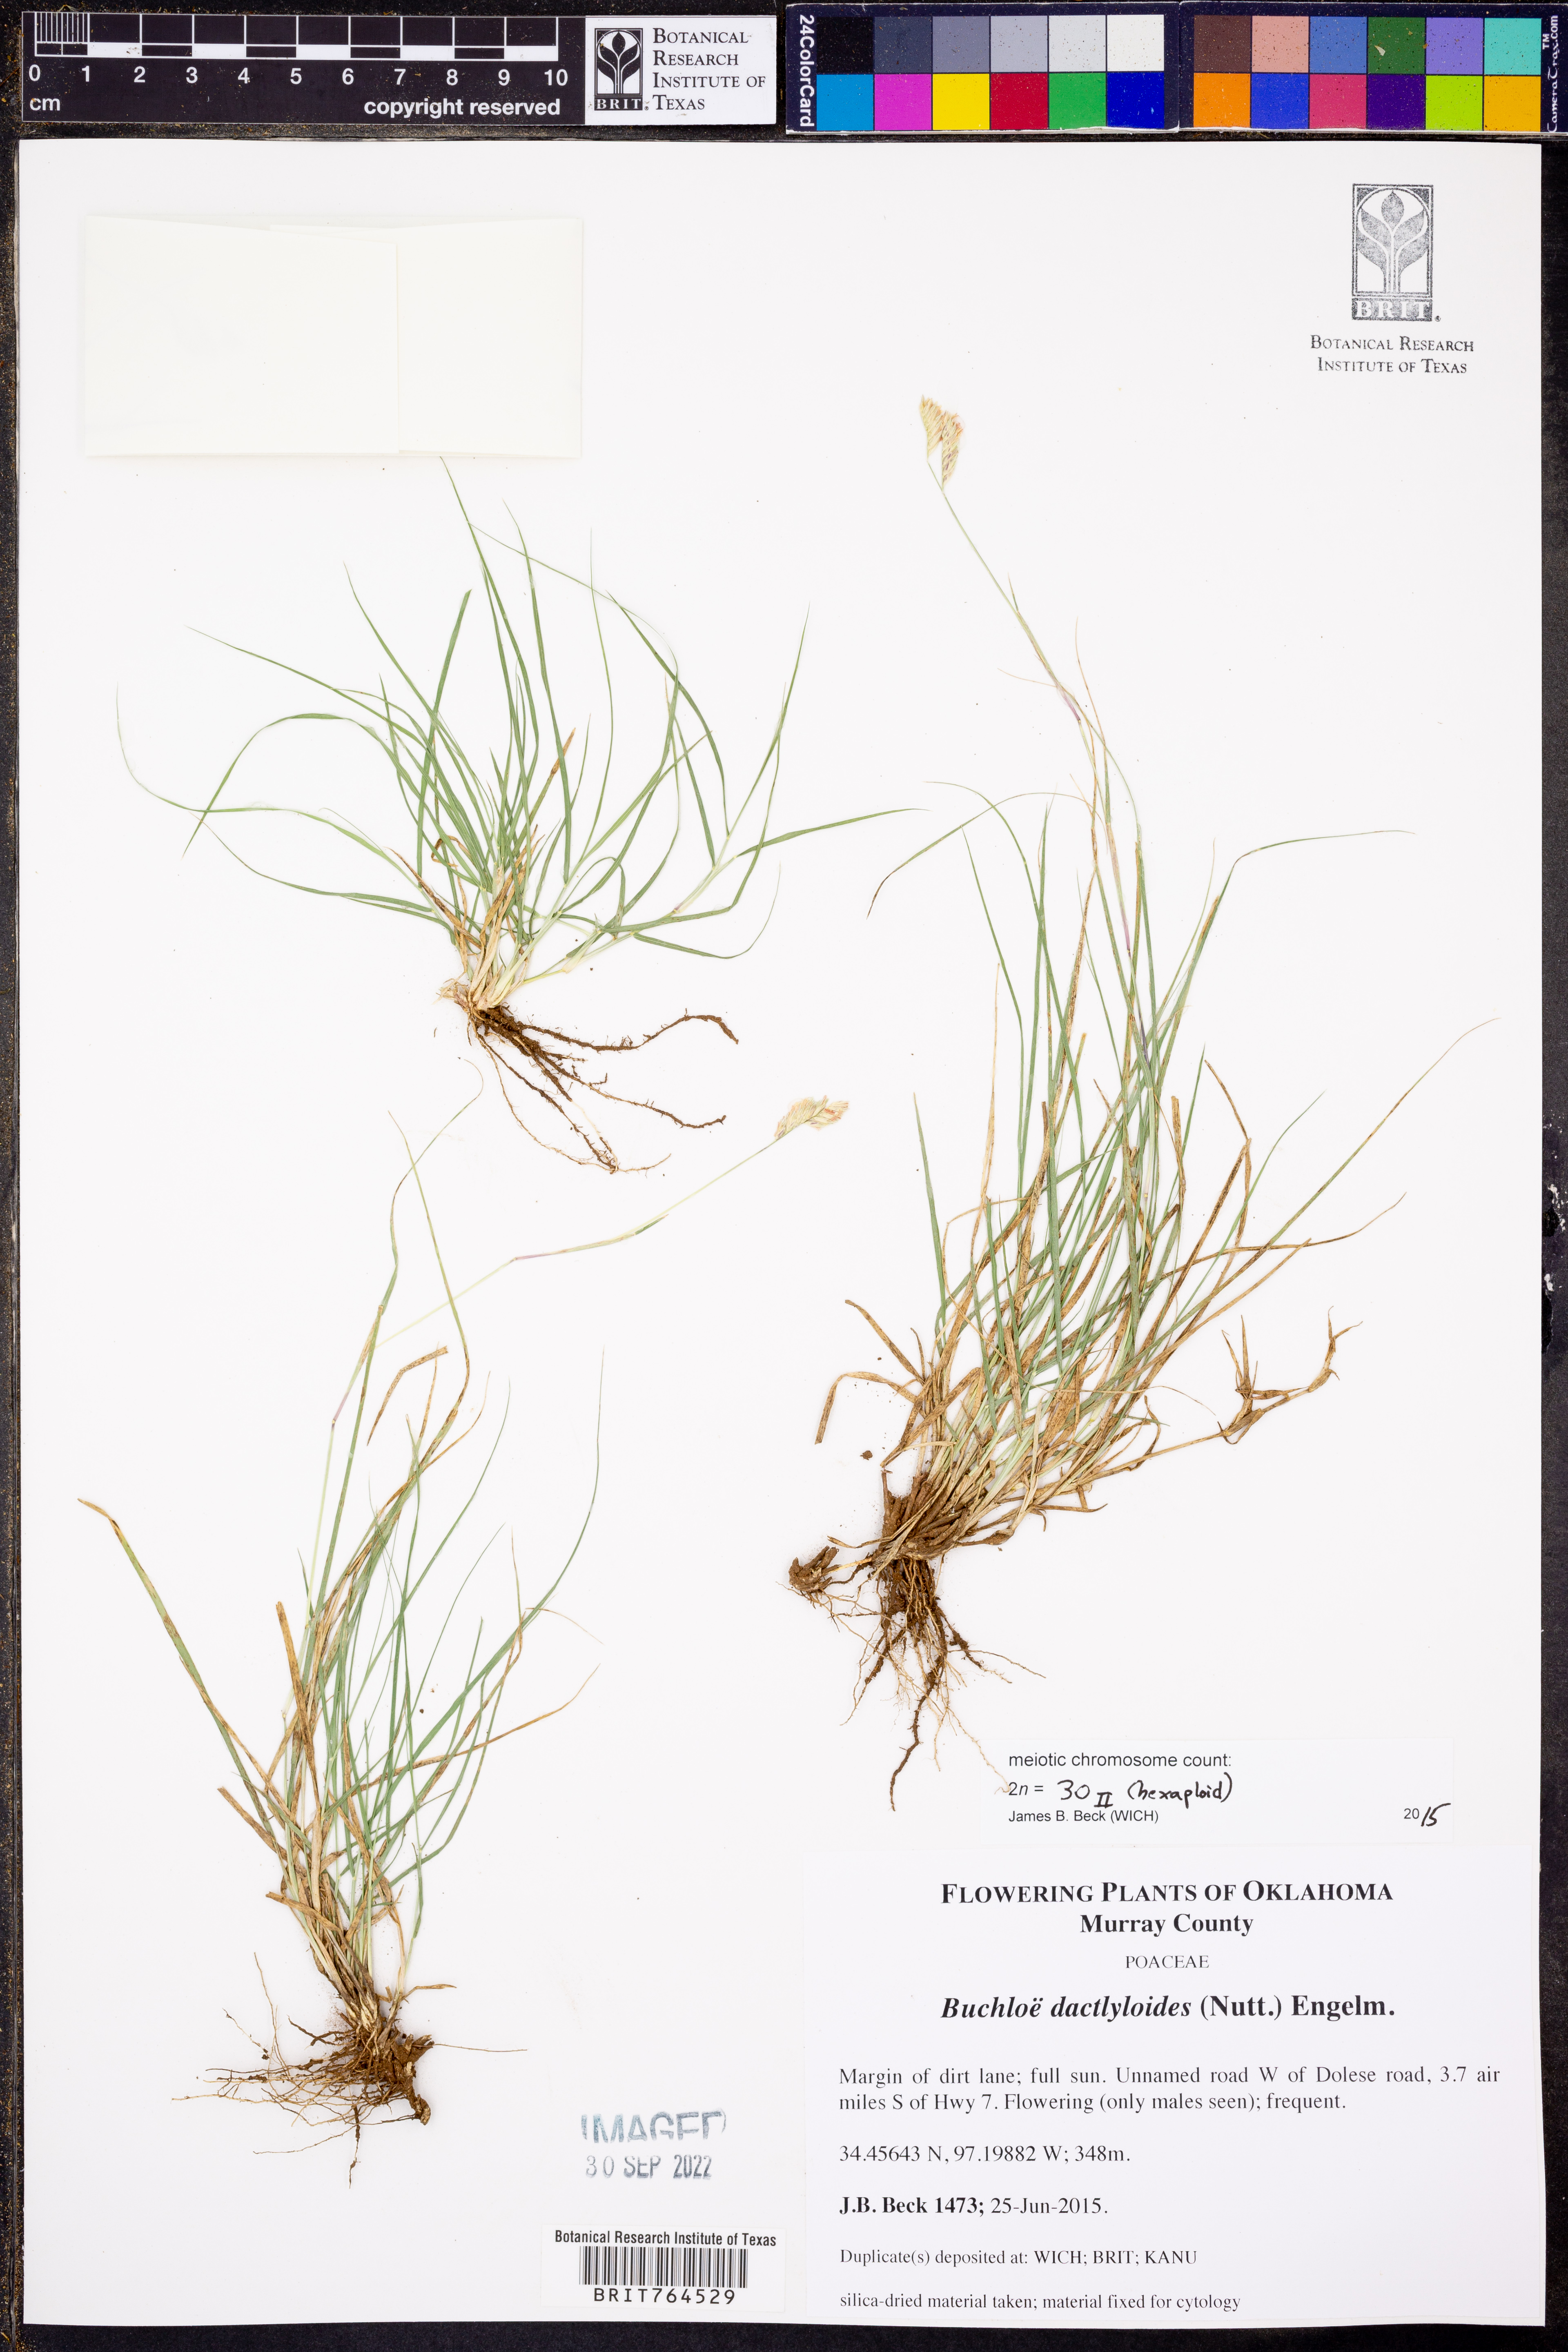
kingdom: Plantae
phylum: Tracheophyta
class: Liliopsida
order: Poales
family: Poaceae
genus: Bouteloua
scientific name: Bouteloua dactyloides
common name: Buffalo grass
